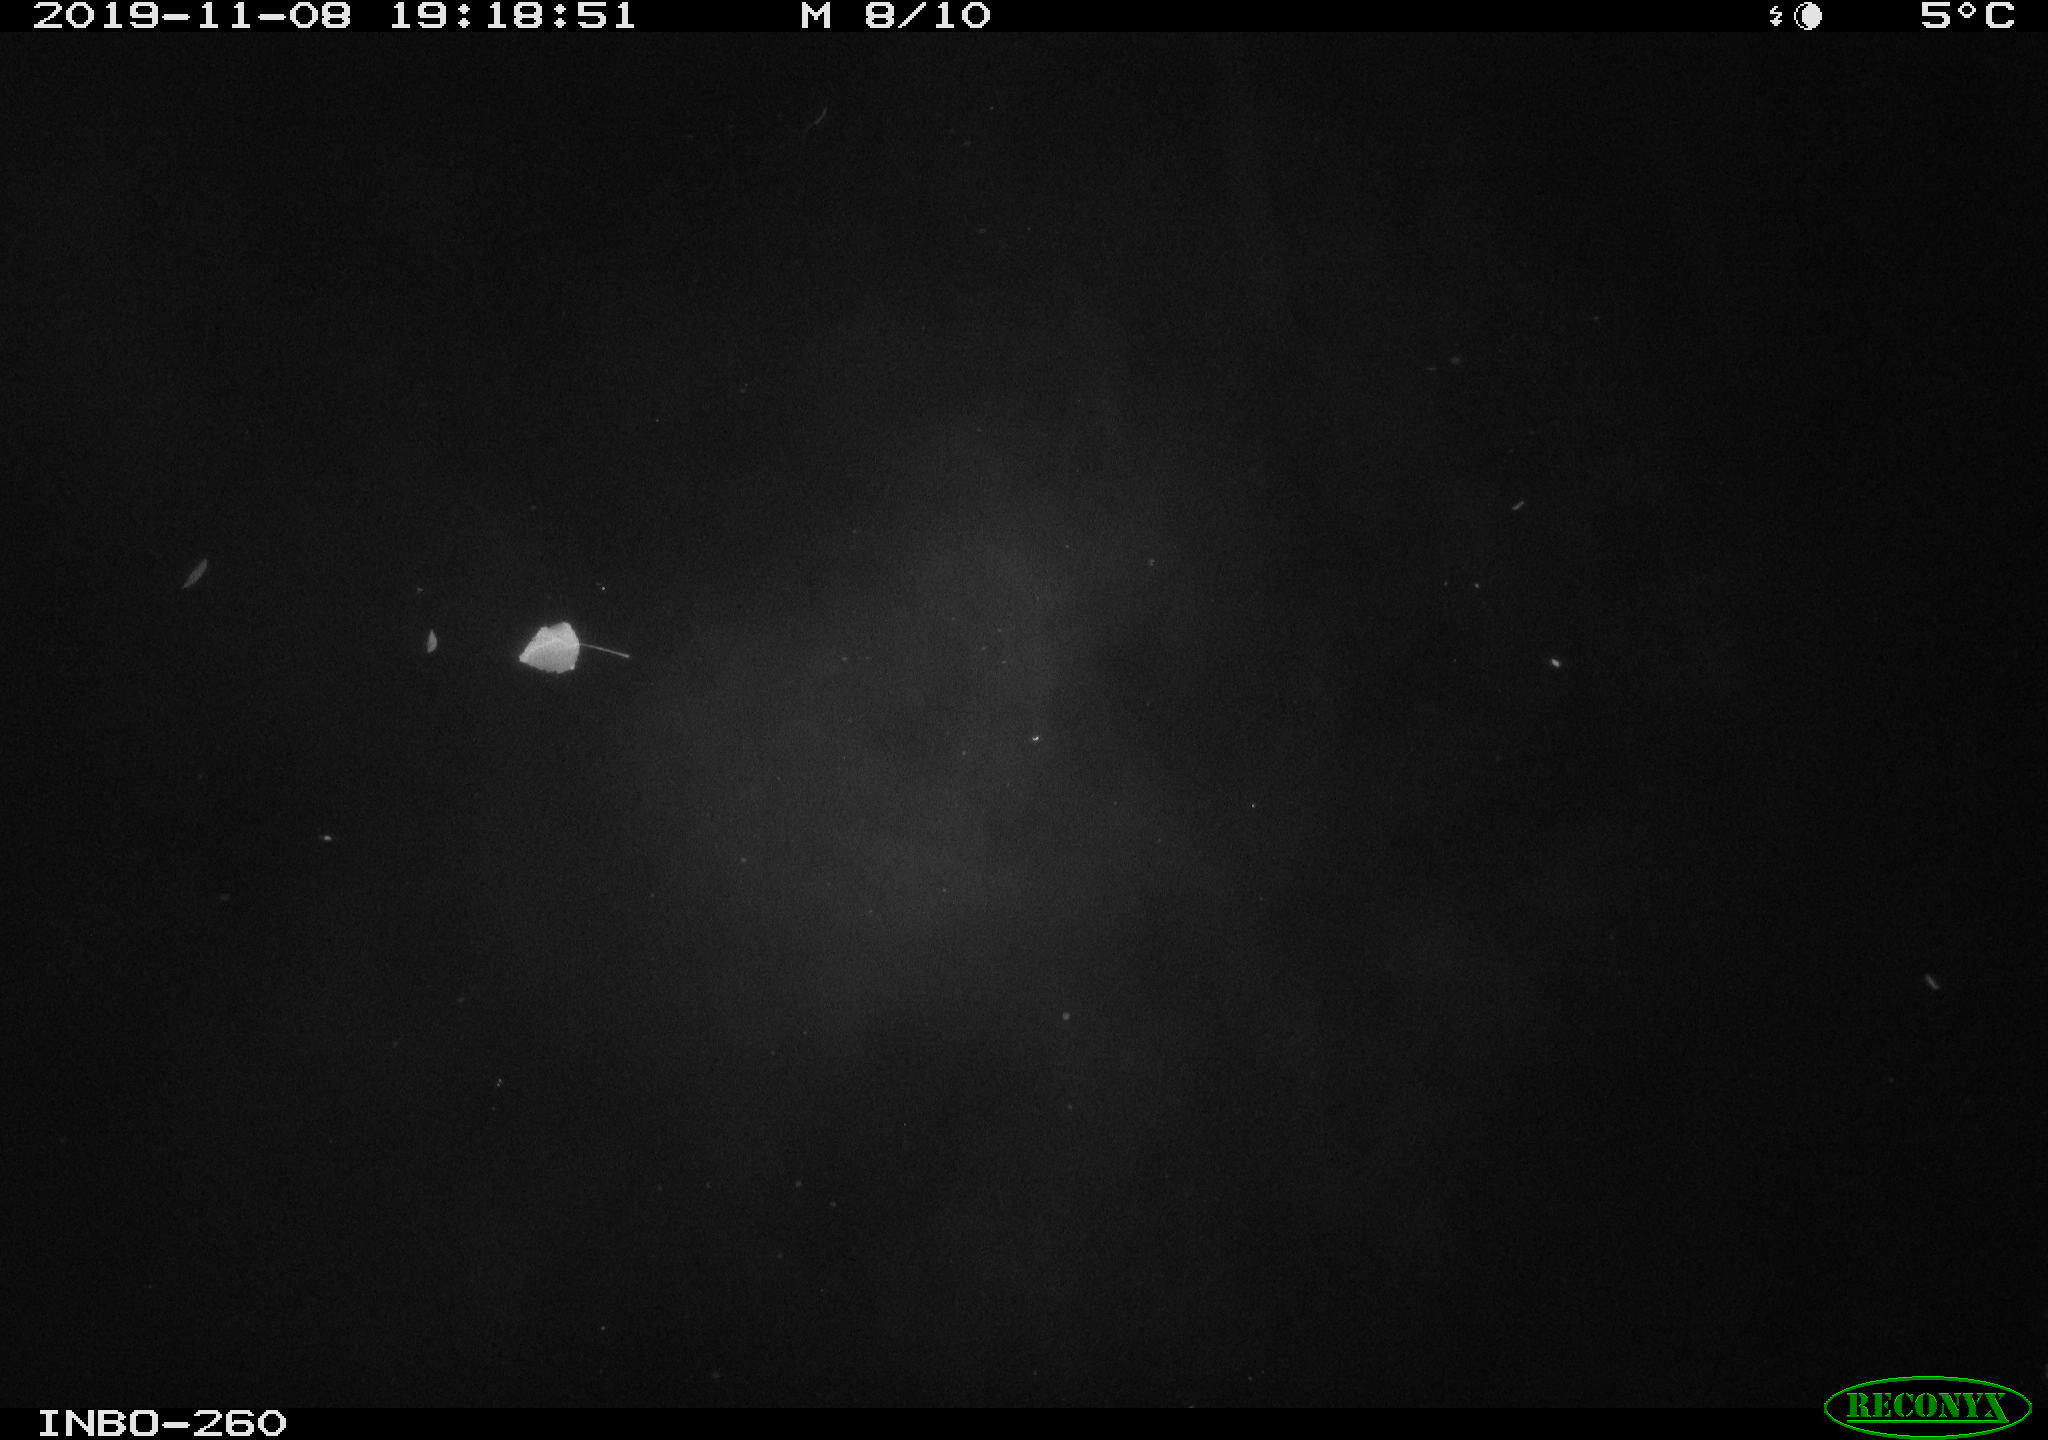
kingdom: Animalia
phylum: Chordata
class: Aves
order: Anseriformes
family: Anatidae
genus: Anas
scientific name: Anas platyrhynchos
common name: Mallard
